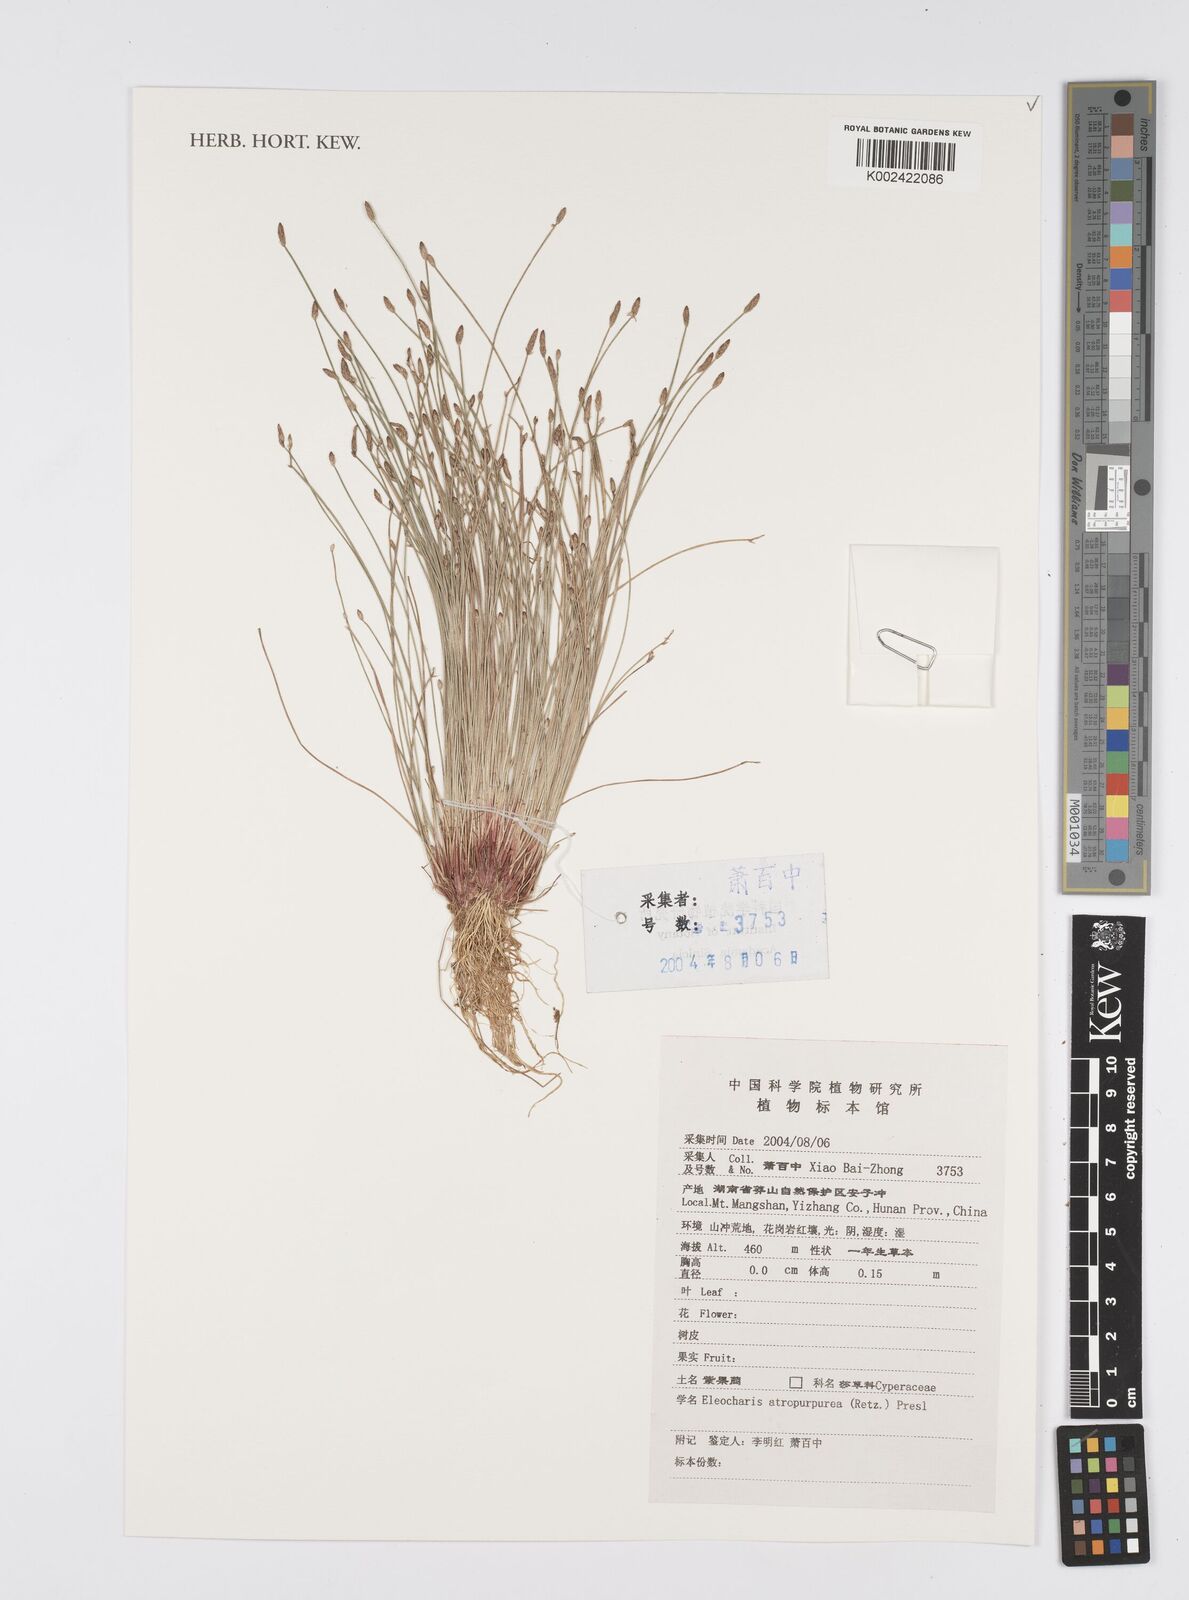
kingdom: Plantae
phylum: Tracheophyta
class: Liliopsida
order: Poales
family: Cyperaceae
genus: Eleocharis
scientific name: Eleocharis atropurpurea
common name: Purple spikerush
